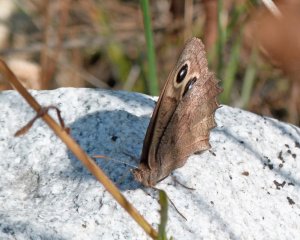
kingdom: Animalia
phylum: Arthropoda
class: Insecta
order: Lepidoptera
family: Nymphalidae
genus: Cercyonis
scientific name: Cercyonis pegala
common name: Common Wood-Nymph
